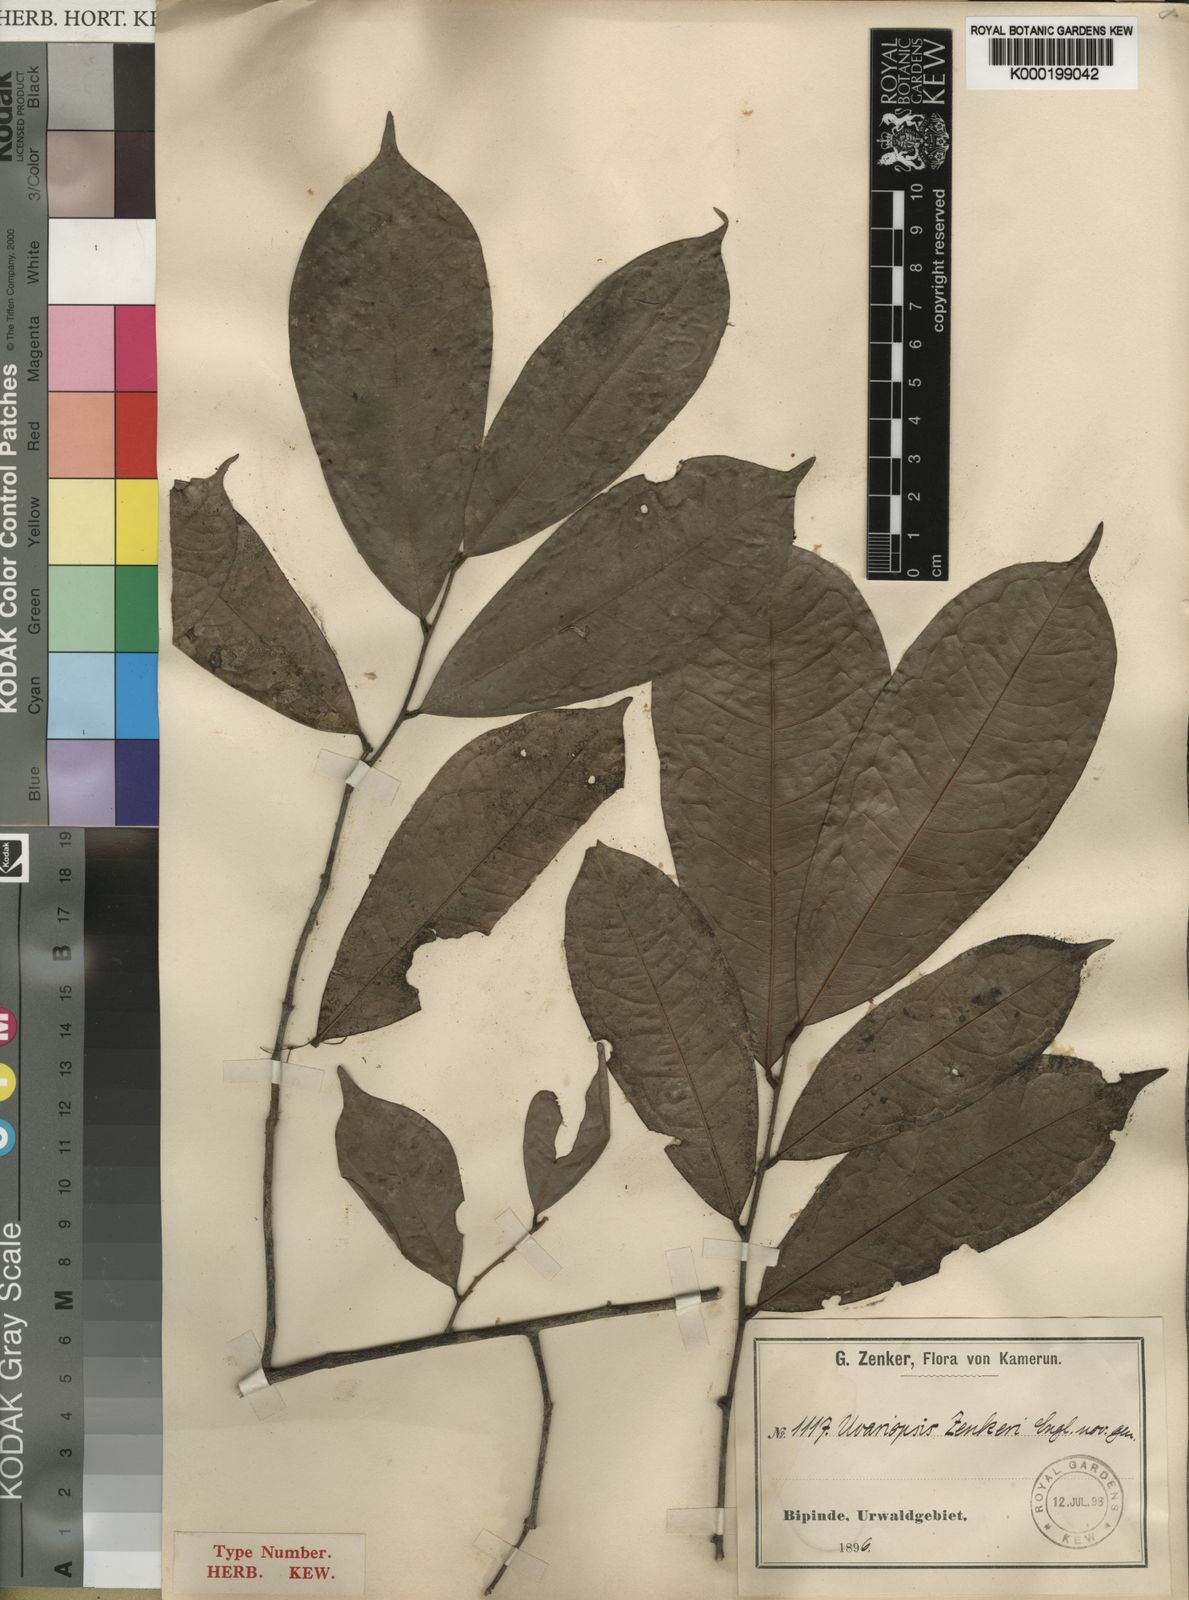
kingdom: Plantae
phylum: Tracheophyta
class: Magnoliopsida
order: Magnoliales
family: Annonaceae
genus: Uvariopsis
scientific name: Uvariopsis zenkeri
